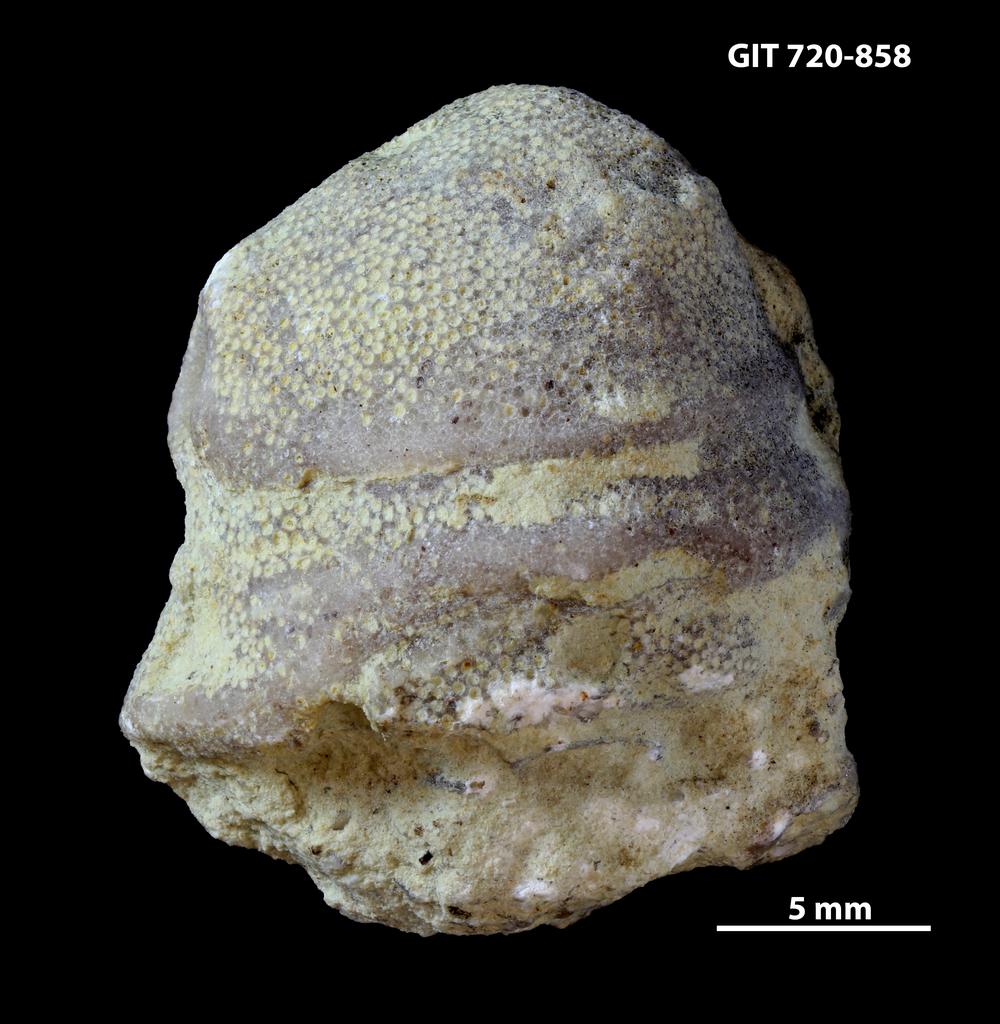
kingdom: Animalia
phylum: Bryozoa
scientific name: Bryozoa
